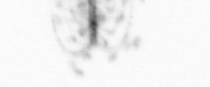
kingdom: Chromista
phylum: Ochrophyta
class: Bacillariophyceae
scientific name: Bacillariophyceae
